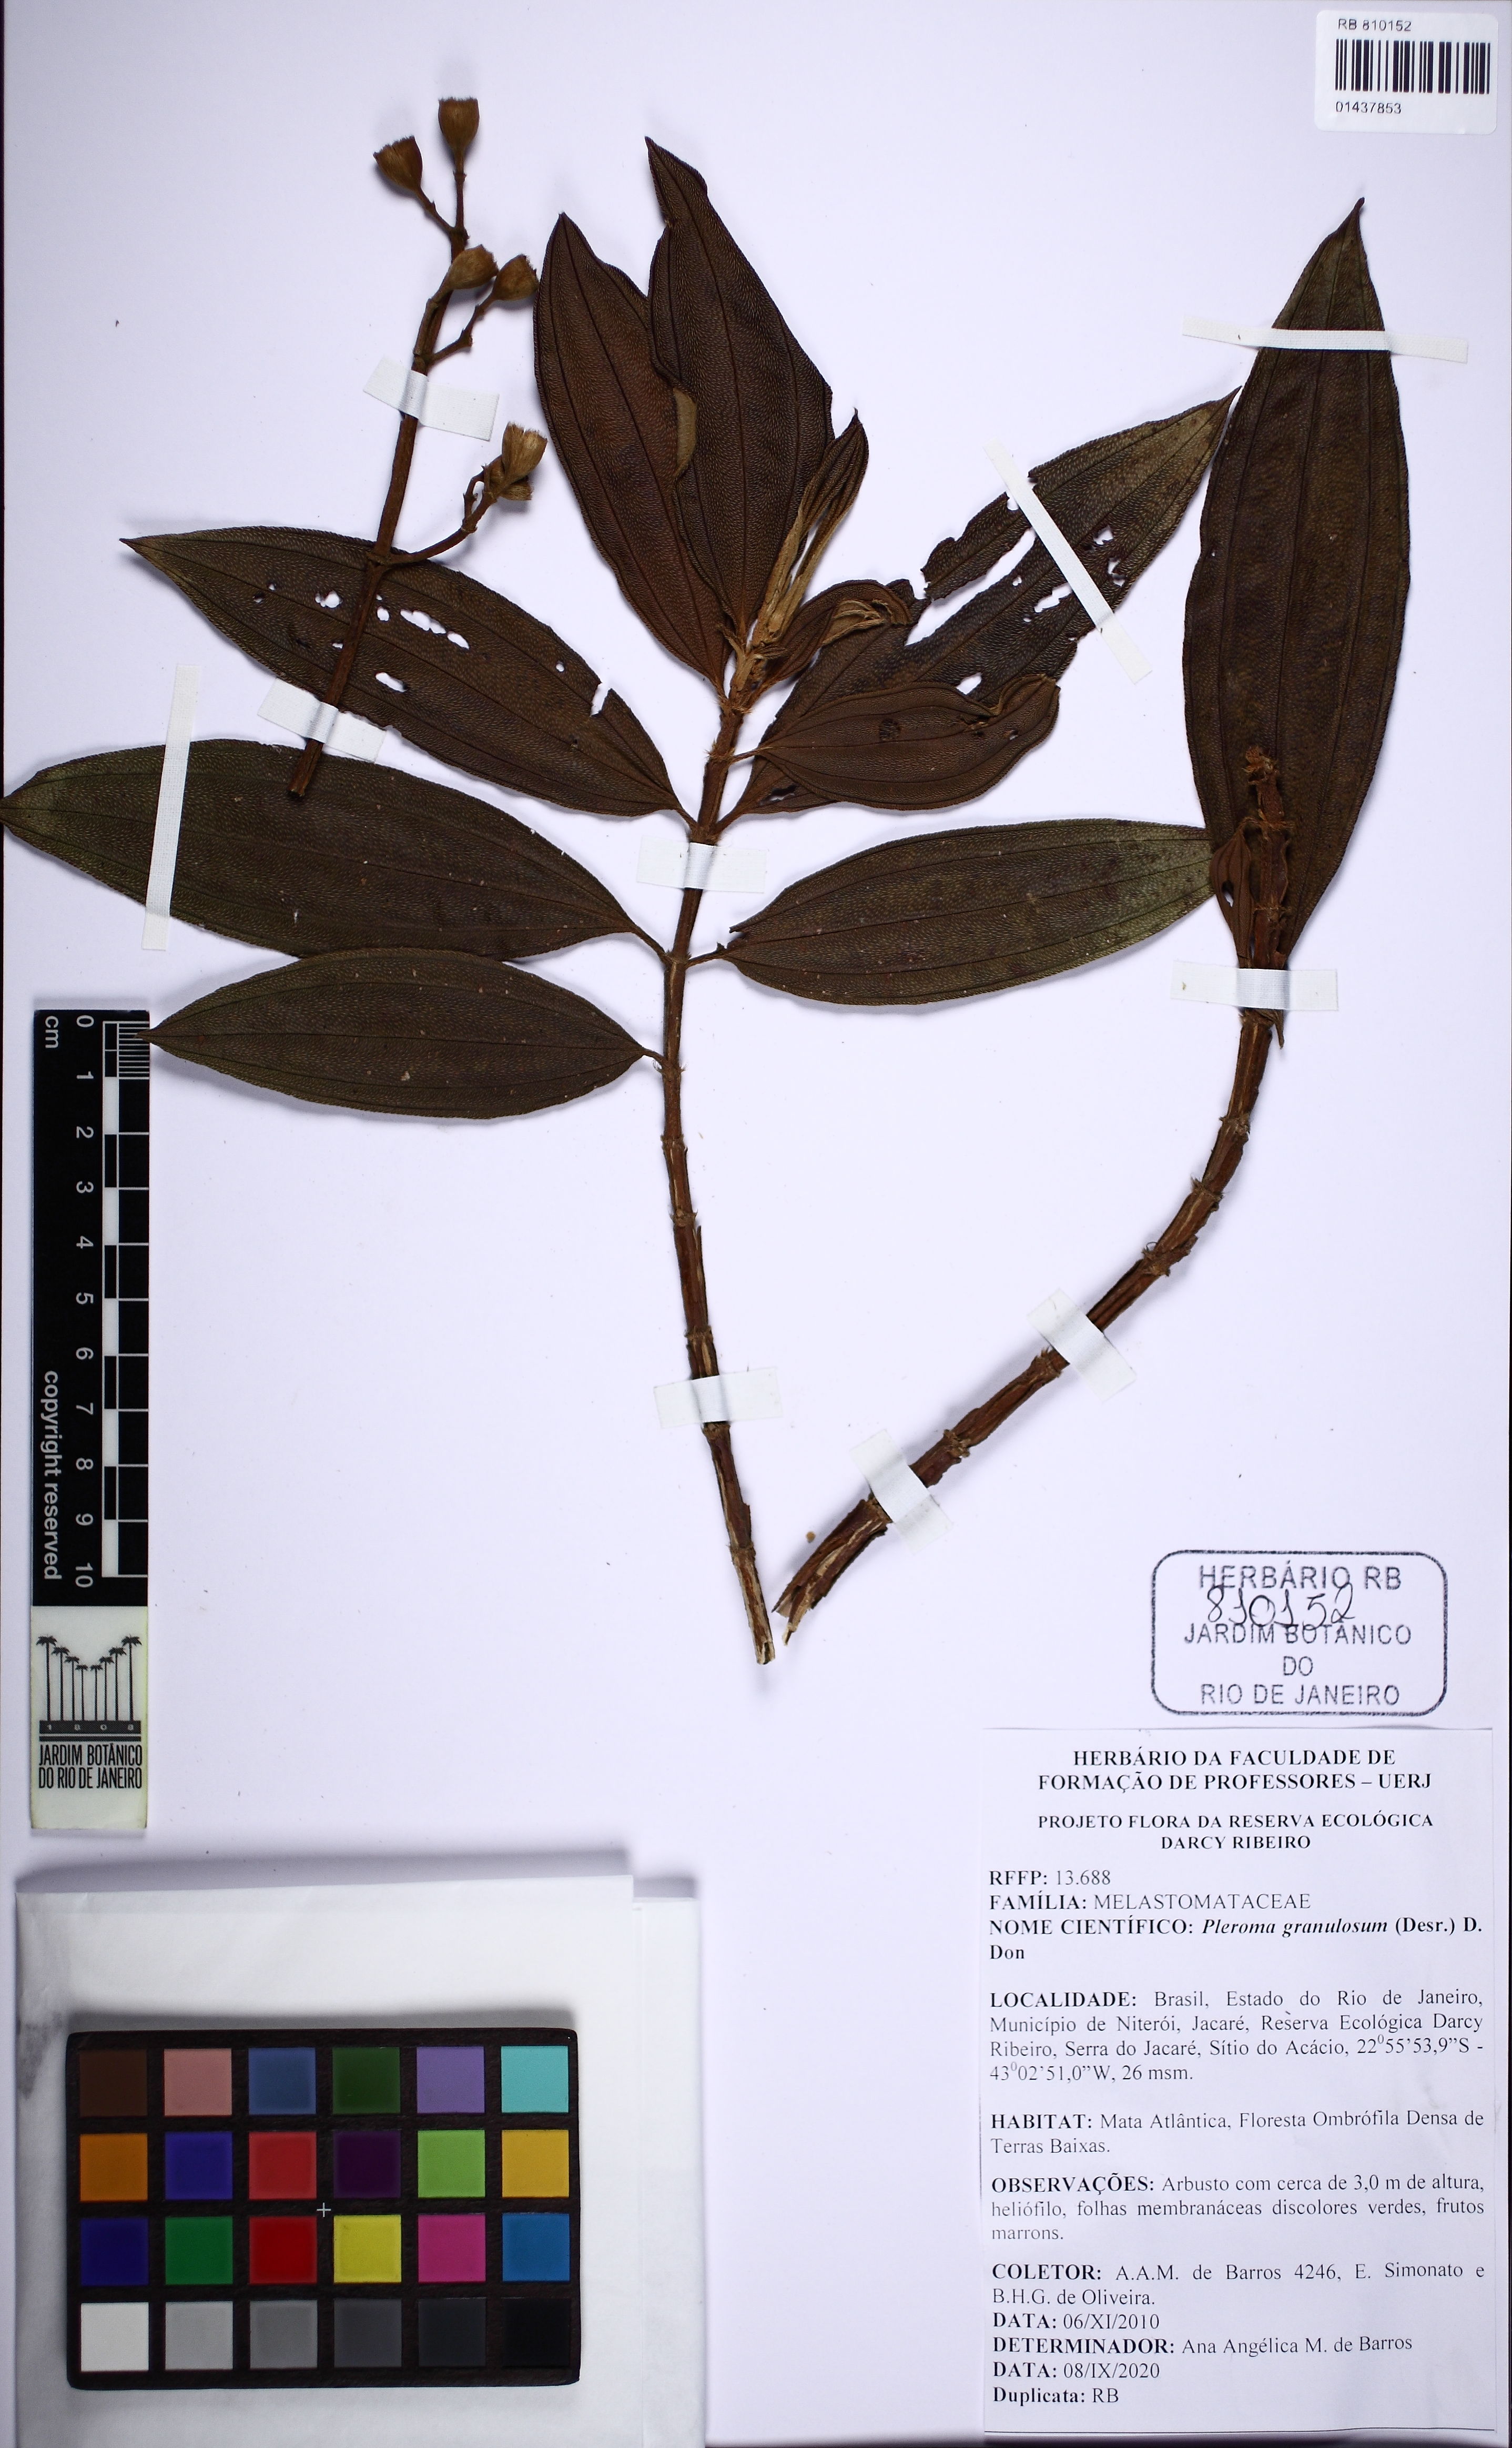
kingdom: Plantae
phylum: Tracheophyta
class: Magnoliopsida
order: Myrtales
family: Melastomataceae
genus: Pleroma
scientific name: Pleroma granulosum
